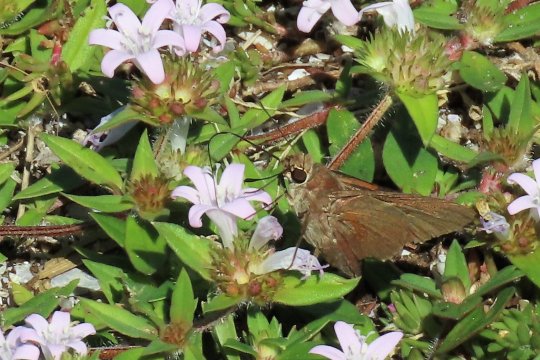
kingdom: Animalia
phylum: Arthropoda
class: Insecta
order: Lepidoptera
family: Hesperiidae
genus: Asbolis
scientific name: Asbolis capucinus
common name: Monk Skipper
